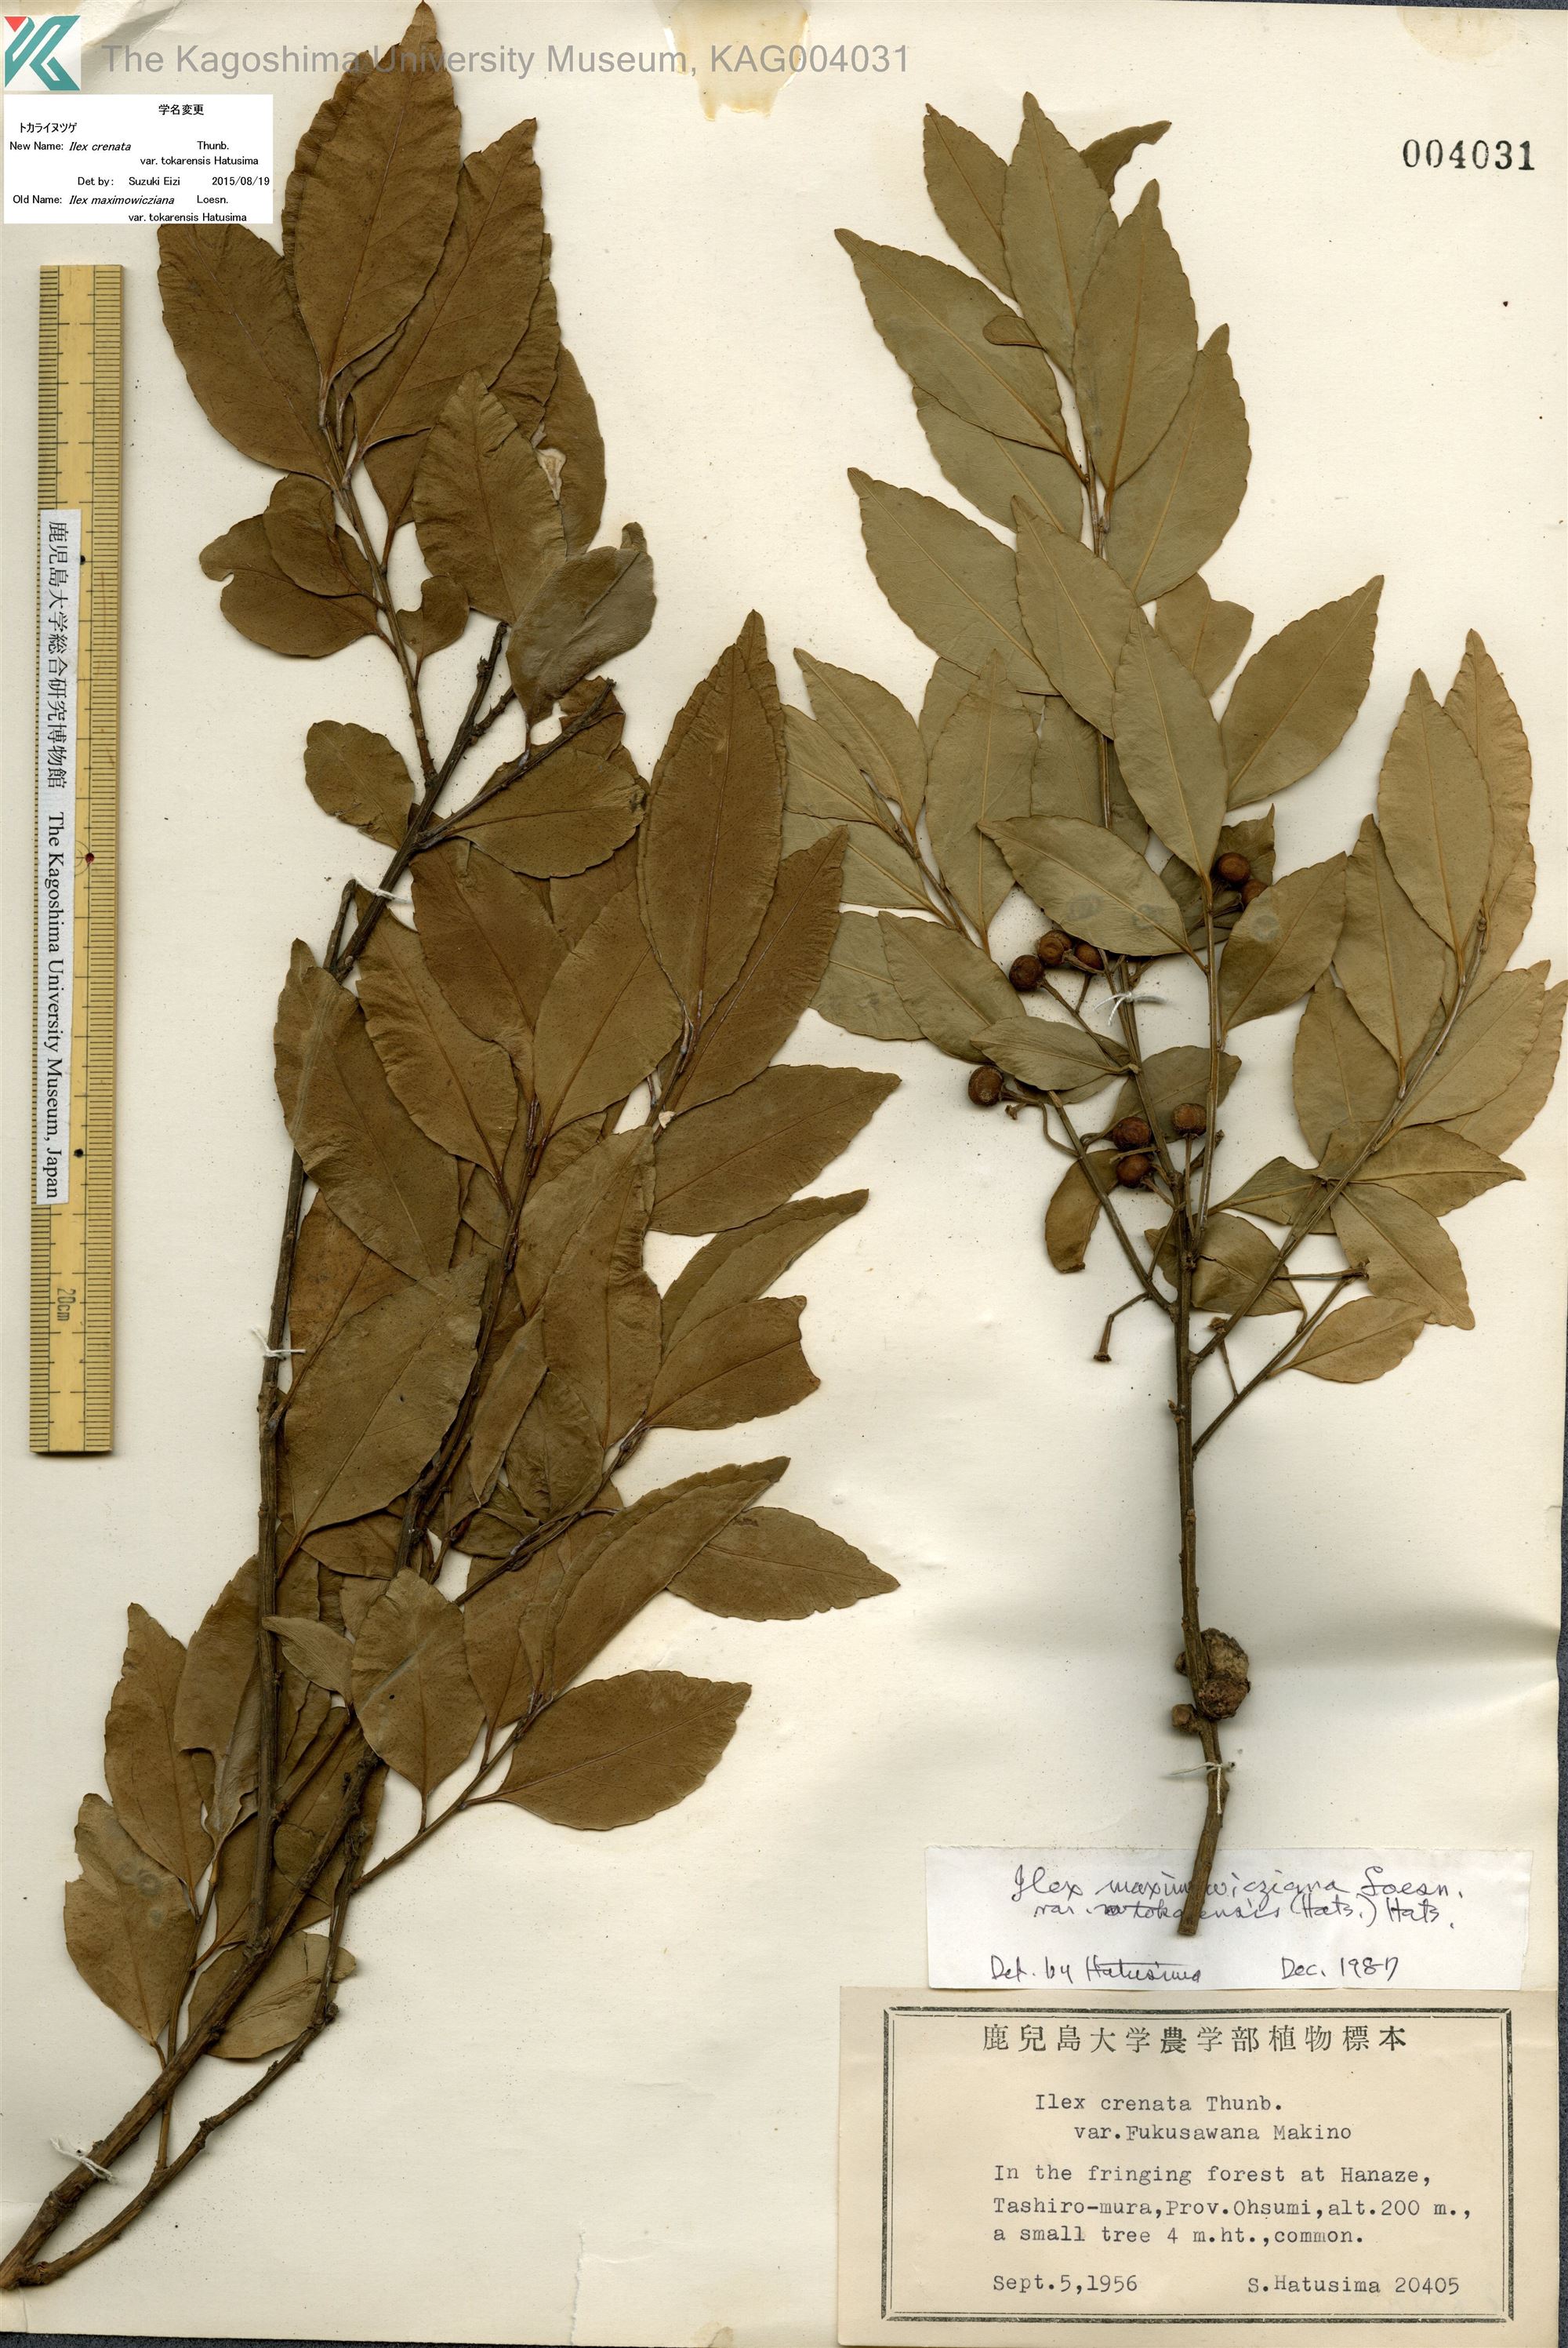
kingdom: Plantae
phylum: Tracheophyta
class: Magnoliopsida
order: Aquifoliales
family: Aquifoliaceae
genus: Ilex
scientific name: Ilex crenata
